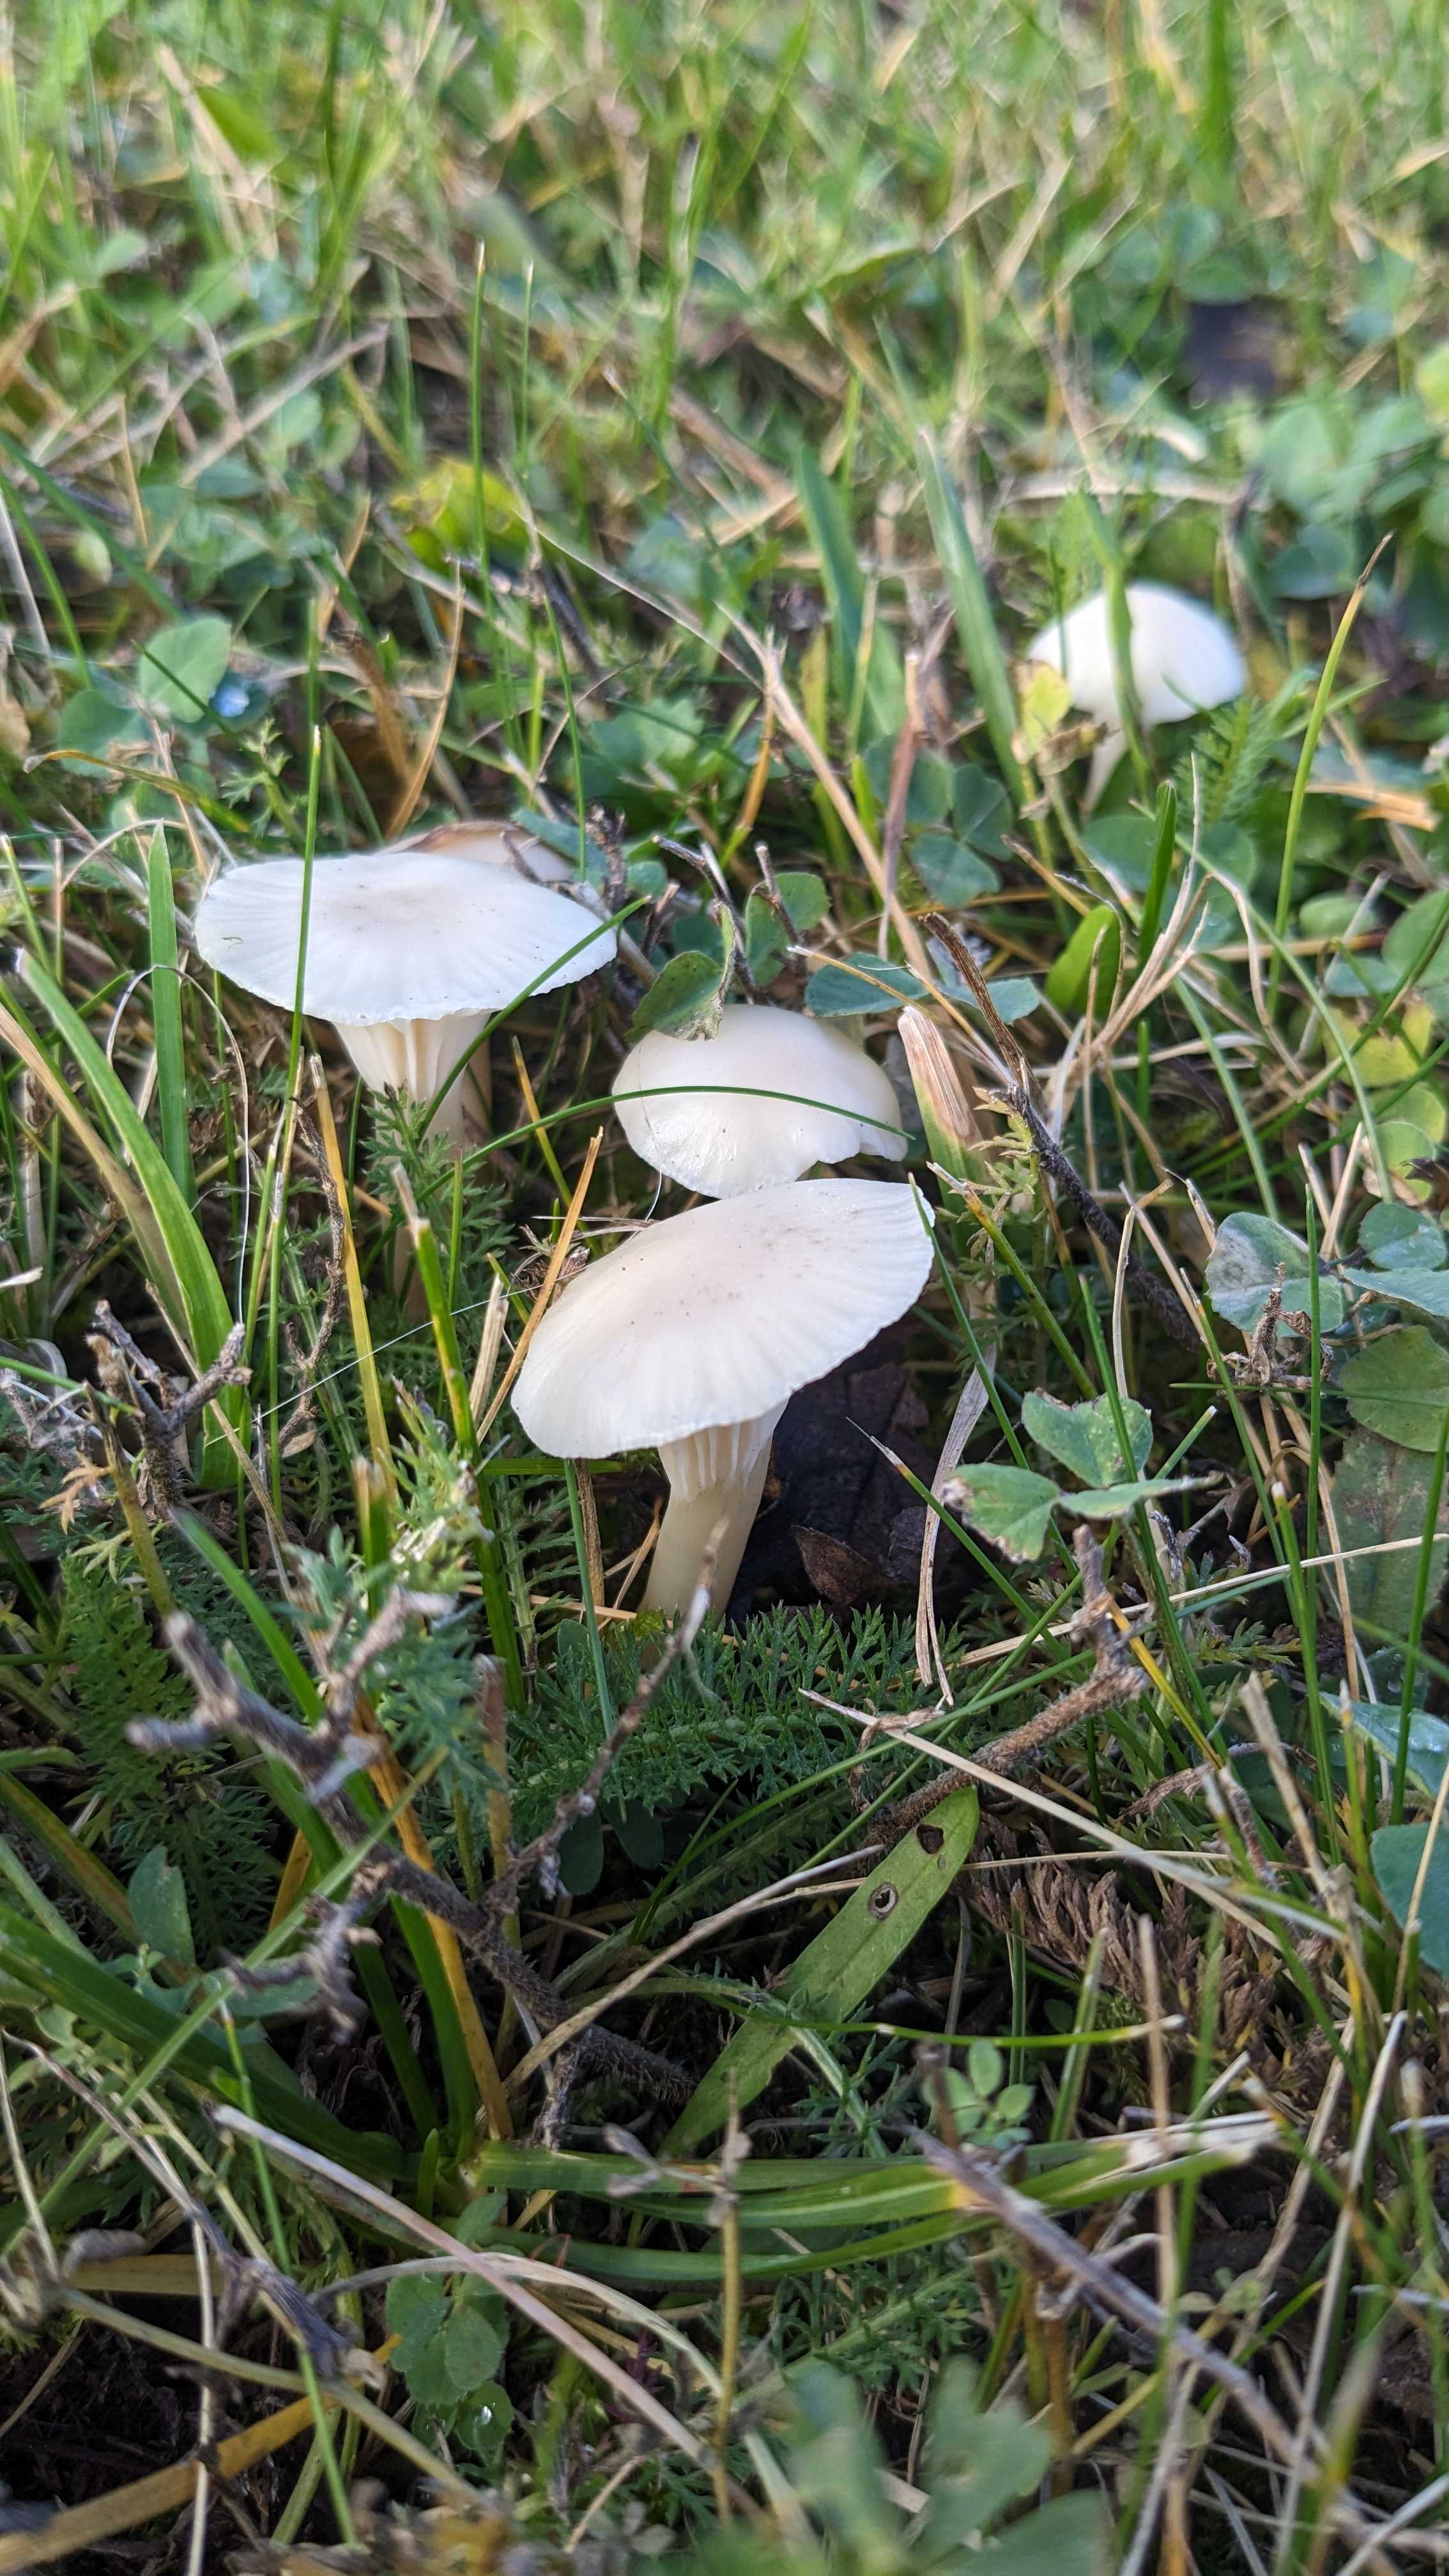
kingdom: Fungi
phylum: Basidiomycota
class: Agaricomycetes
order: Agaricales
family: Hygrophoraceae
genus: Cuphophyllus
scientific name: Cuphophyllus virgineus
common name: snehvid vokshat
